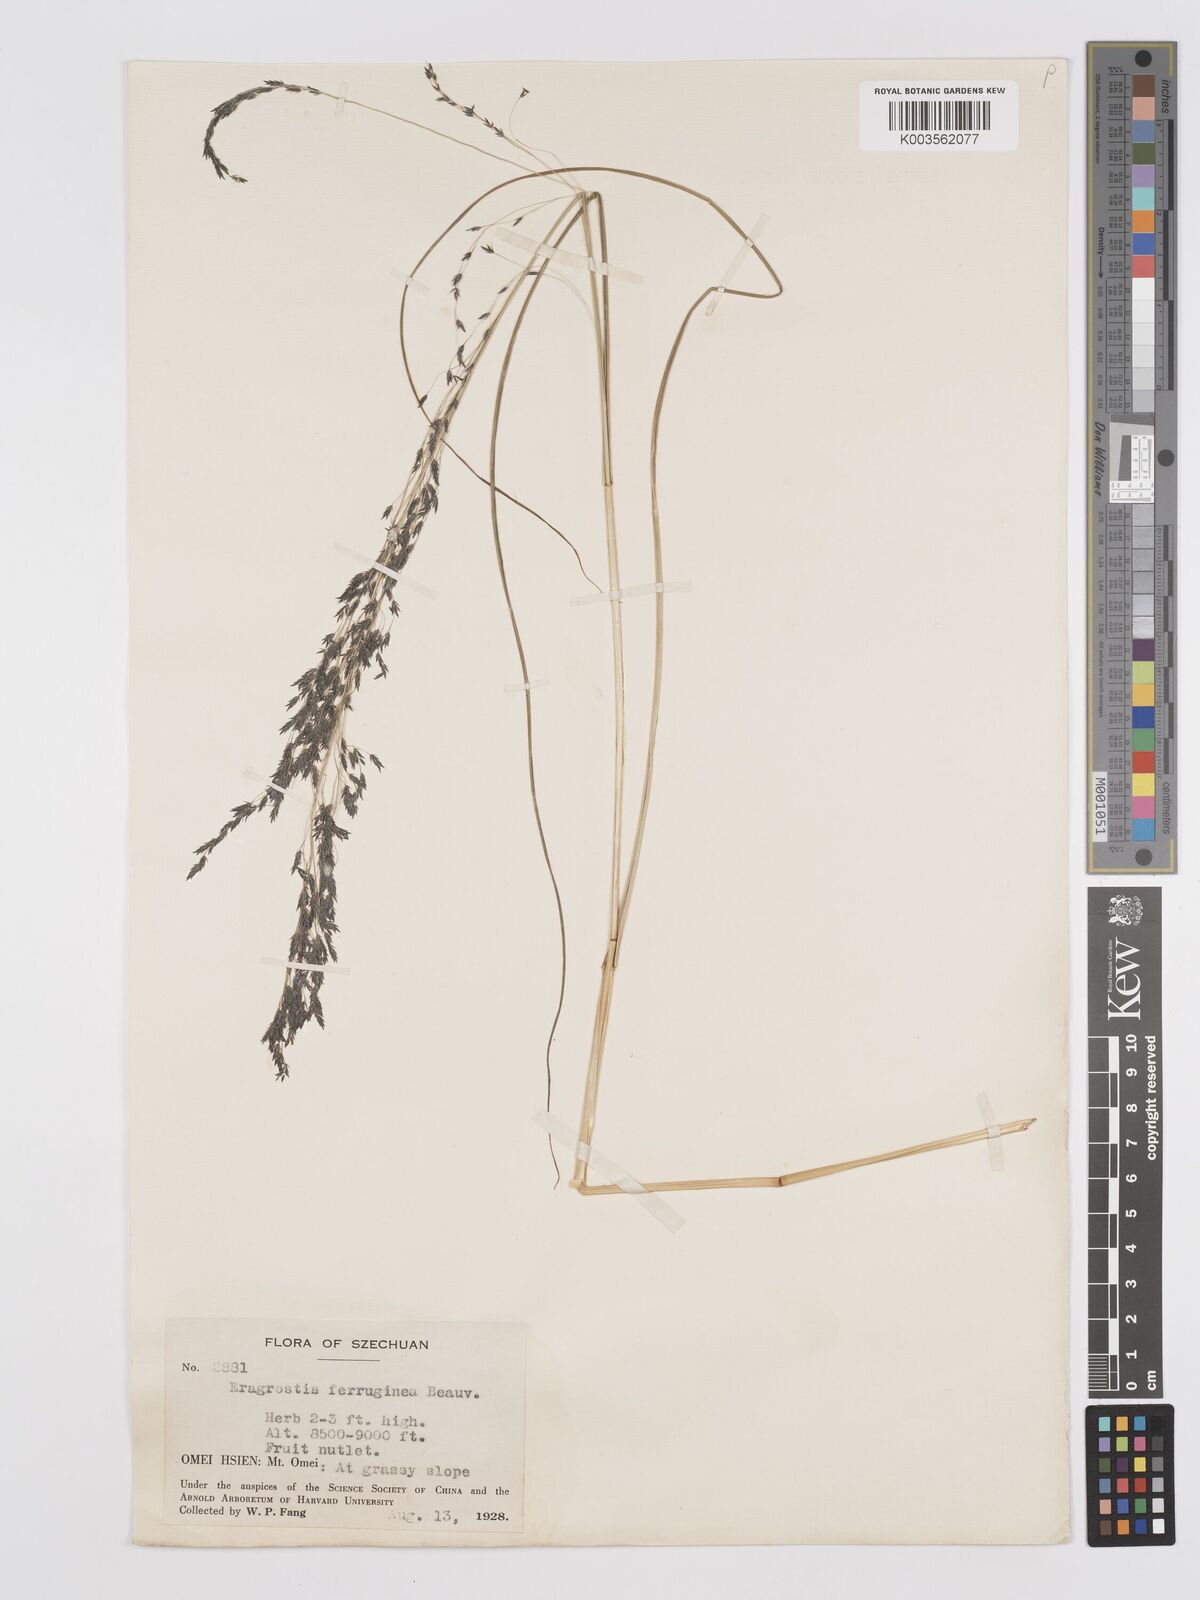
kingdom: Plantae
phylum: Tracheophyta
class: Liliopsida
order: Poales
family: Poaceae
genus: Eragrostis
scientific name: Eragrostis ferruginea
